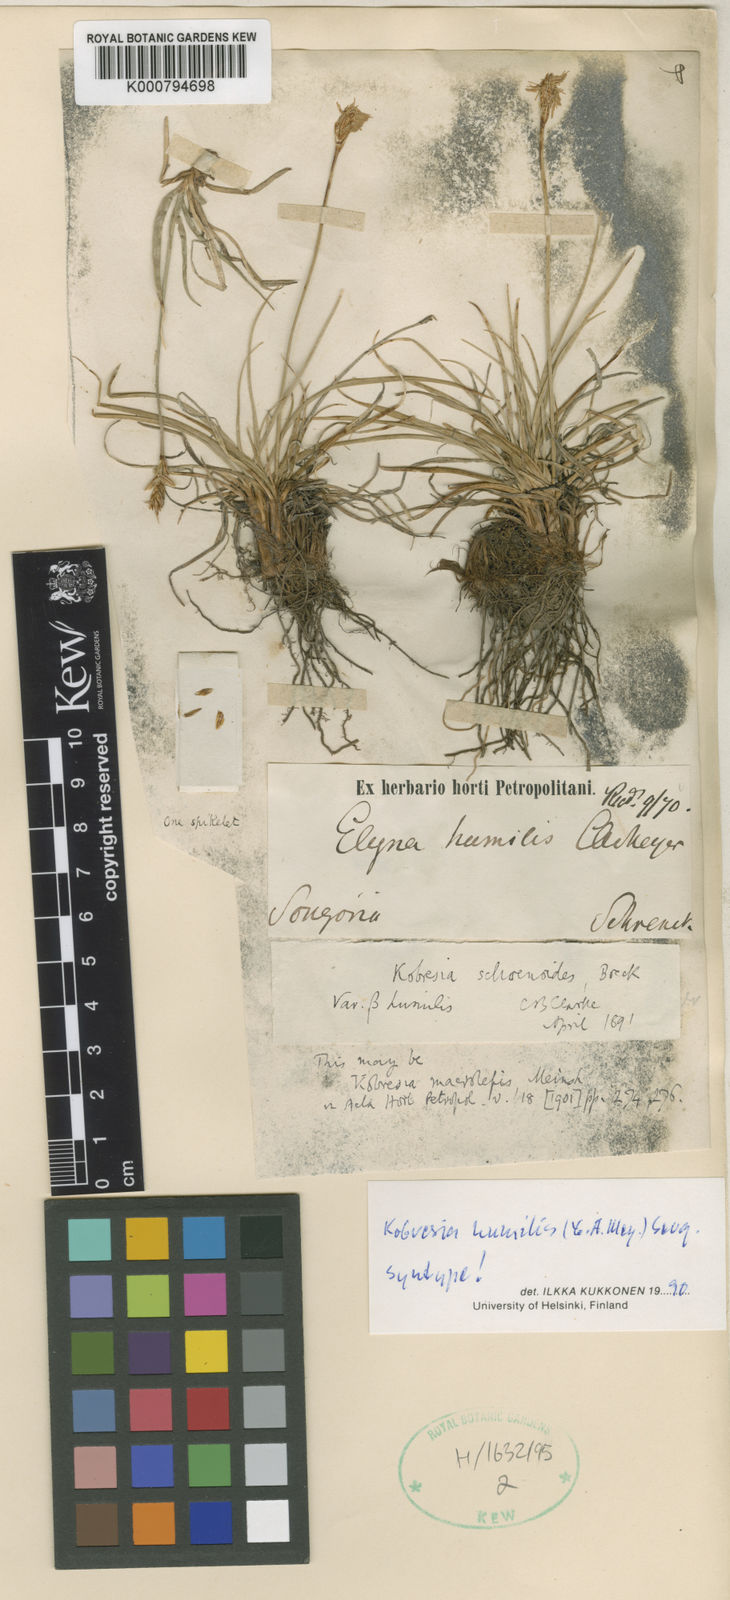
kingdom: Plantae
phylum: Tracheophyta
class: Liliopsida
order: Poales
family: Cyperaceae
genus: Carex
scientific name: Carex alatauensis
